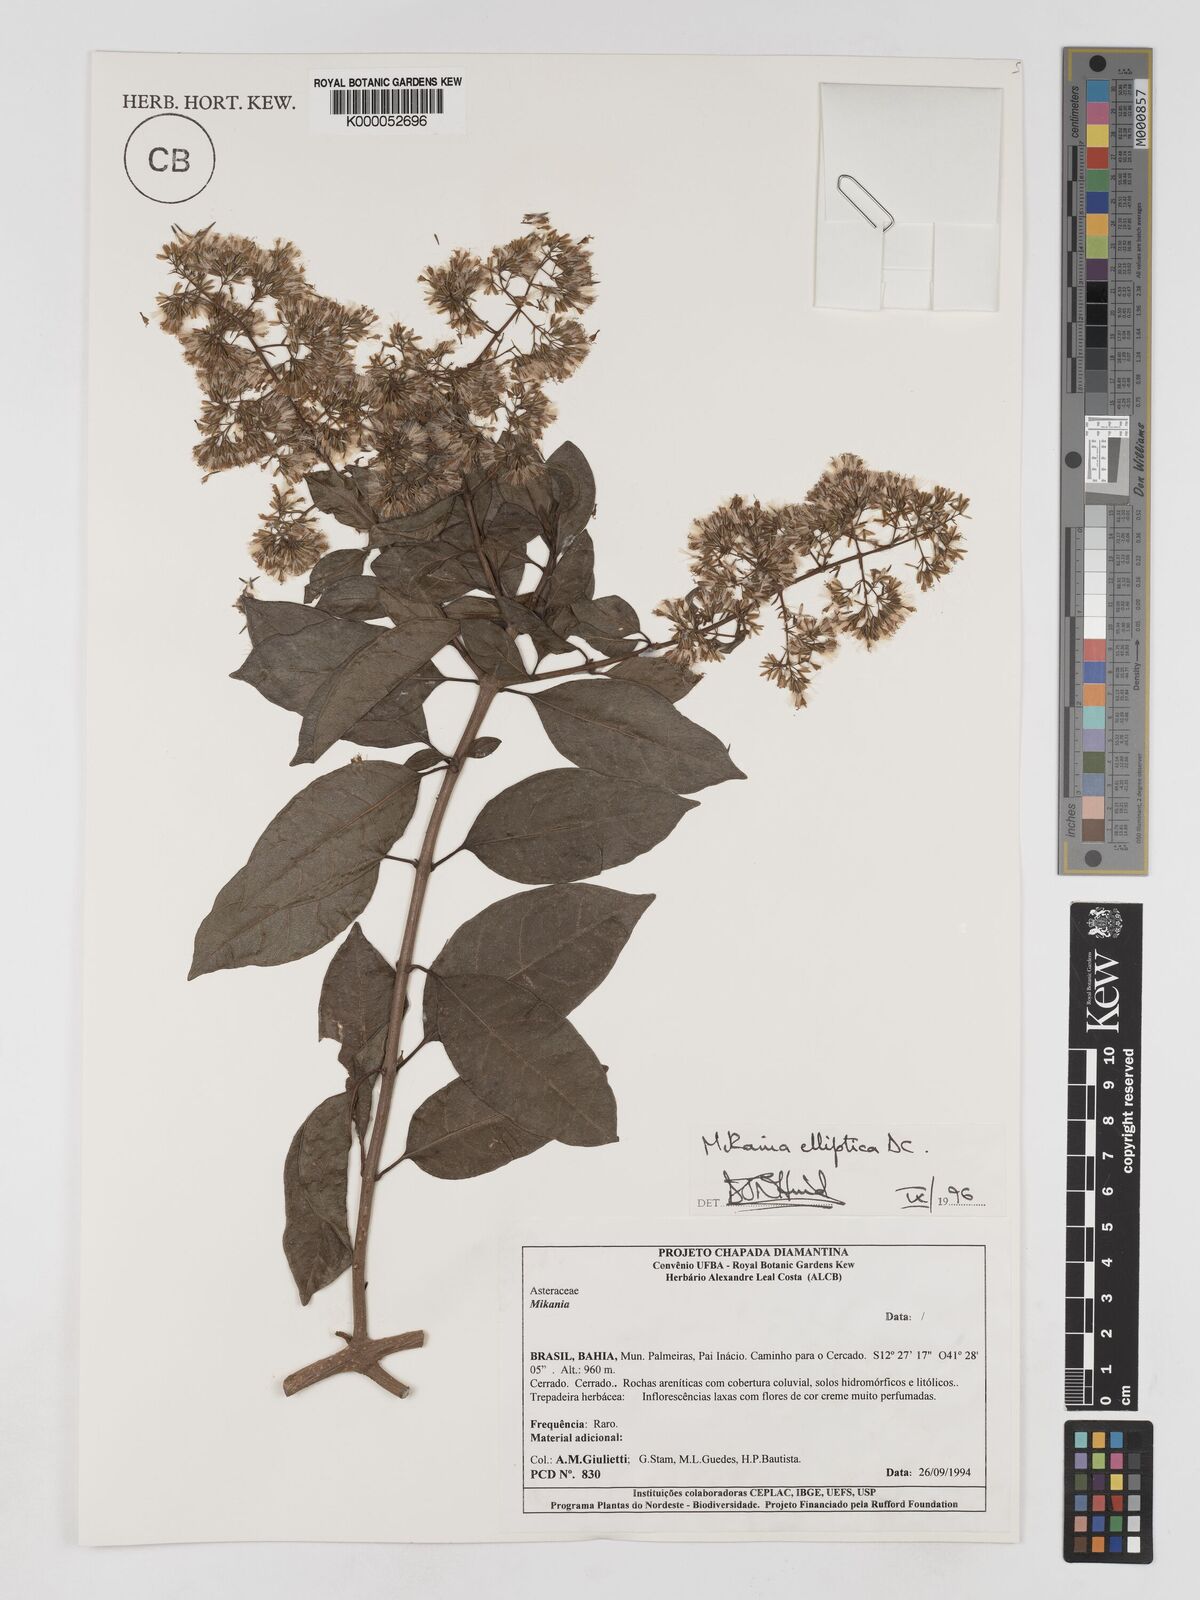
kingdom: Plantae
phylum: Tracheophyta
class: Magnoliopsida
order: Asterales
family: Asteraceae
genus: Mikania
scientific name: Mikania elliptica
